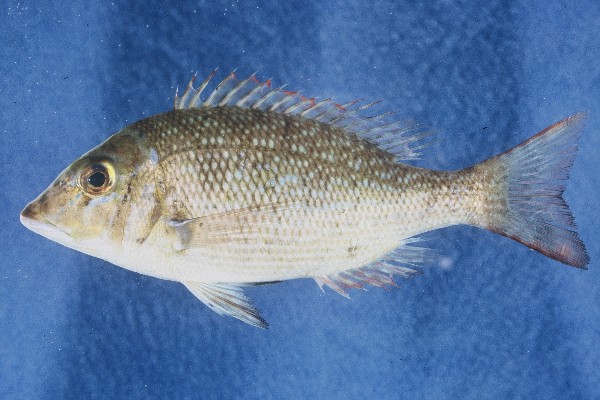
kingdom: Animalia
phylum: Chordata
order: Perciformes
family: Lethrinidae
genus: Lethrinus
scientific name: Lethrinus nebulosus
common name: Spangled emperor
